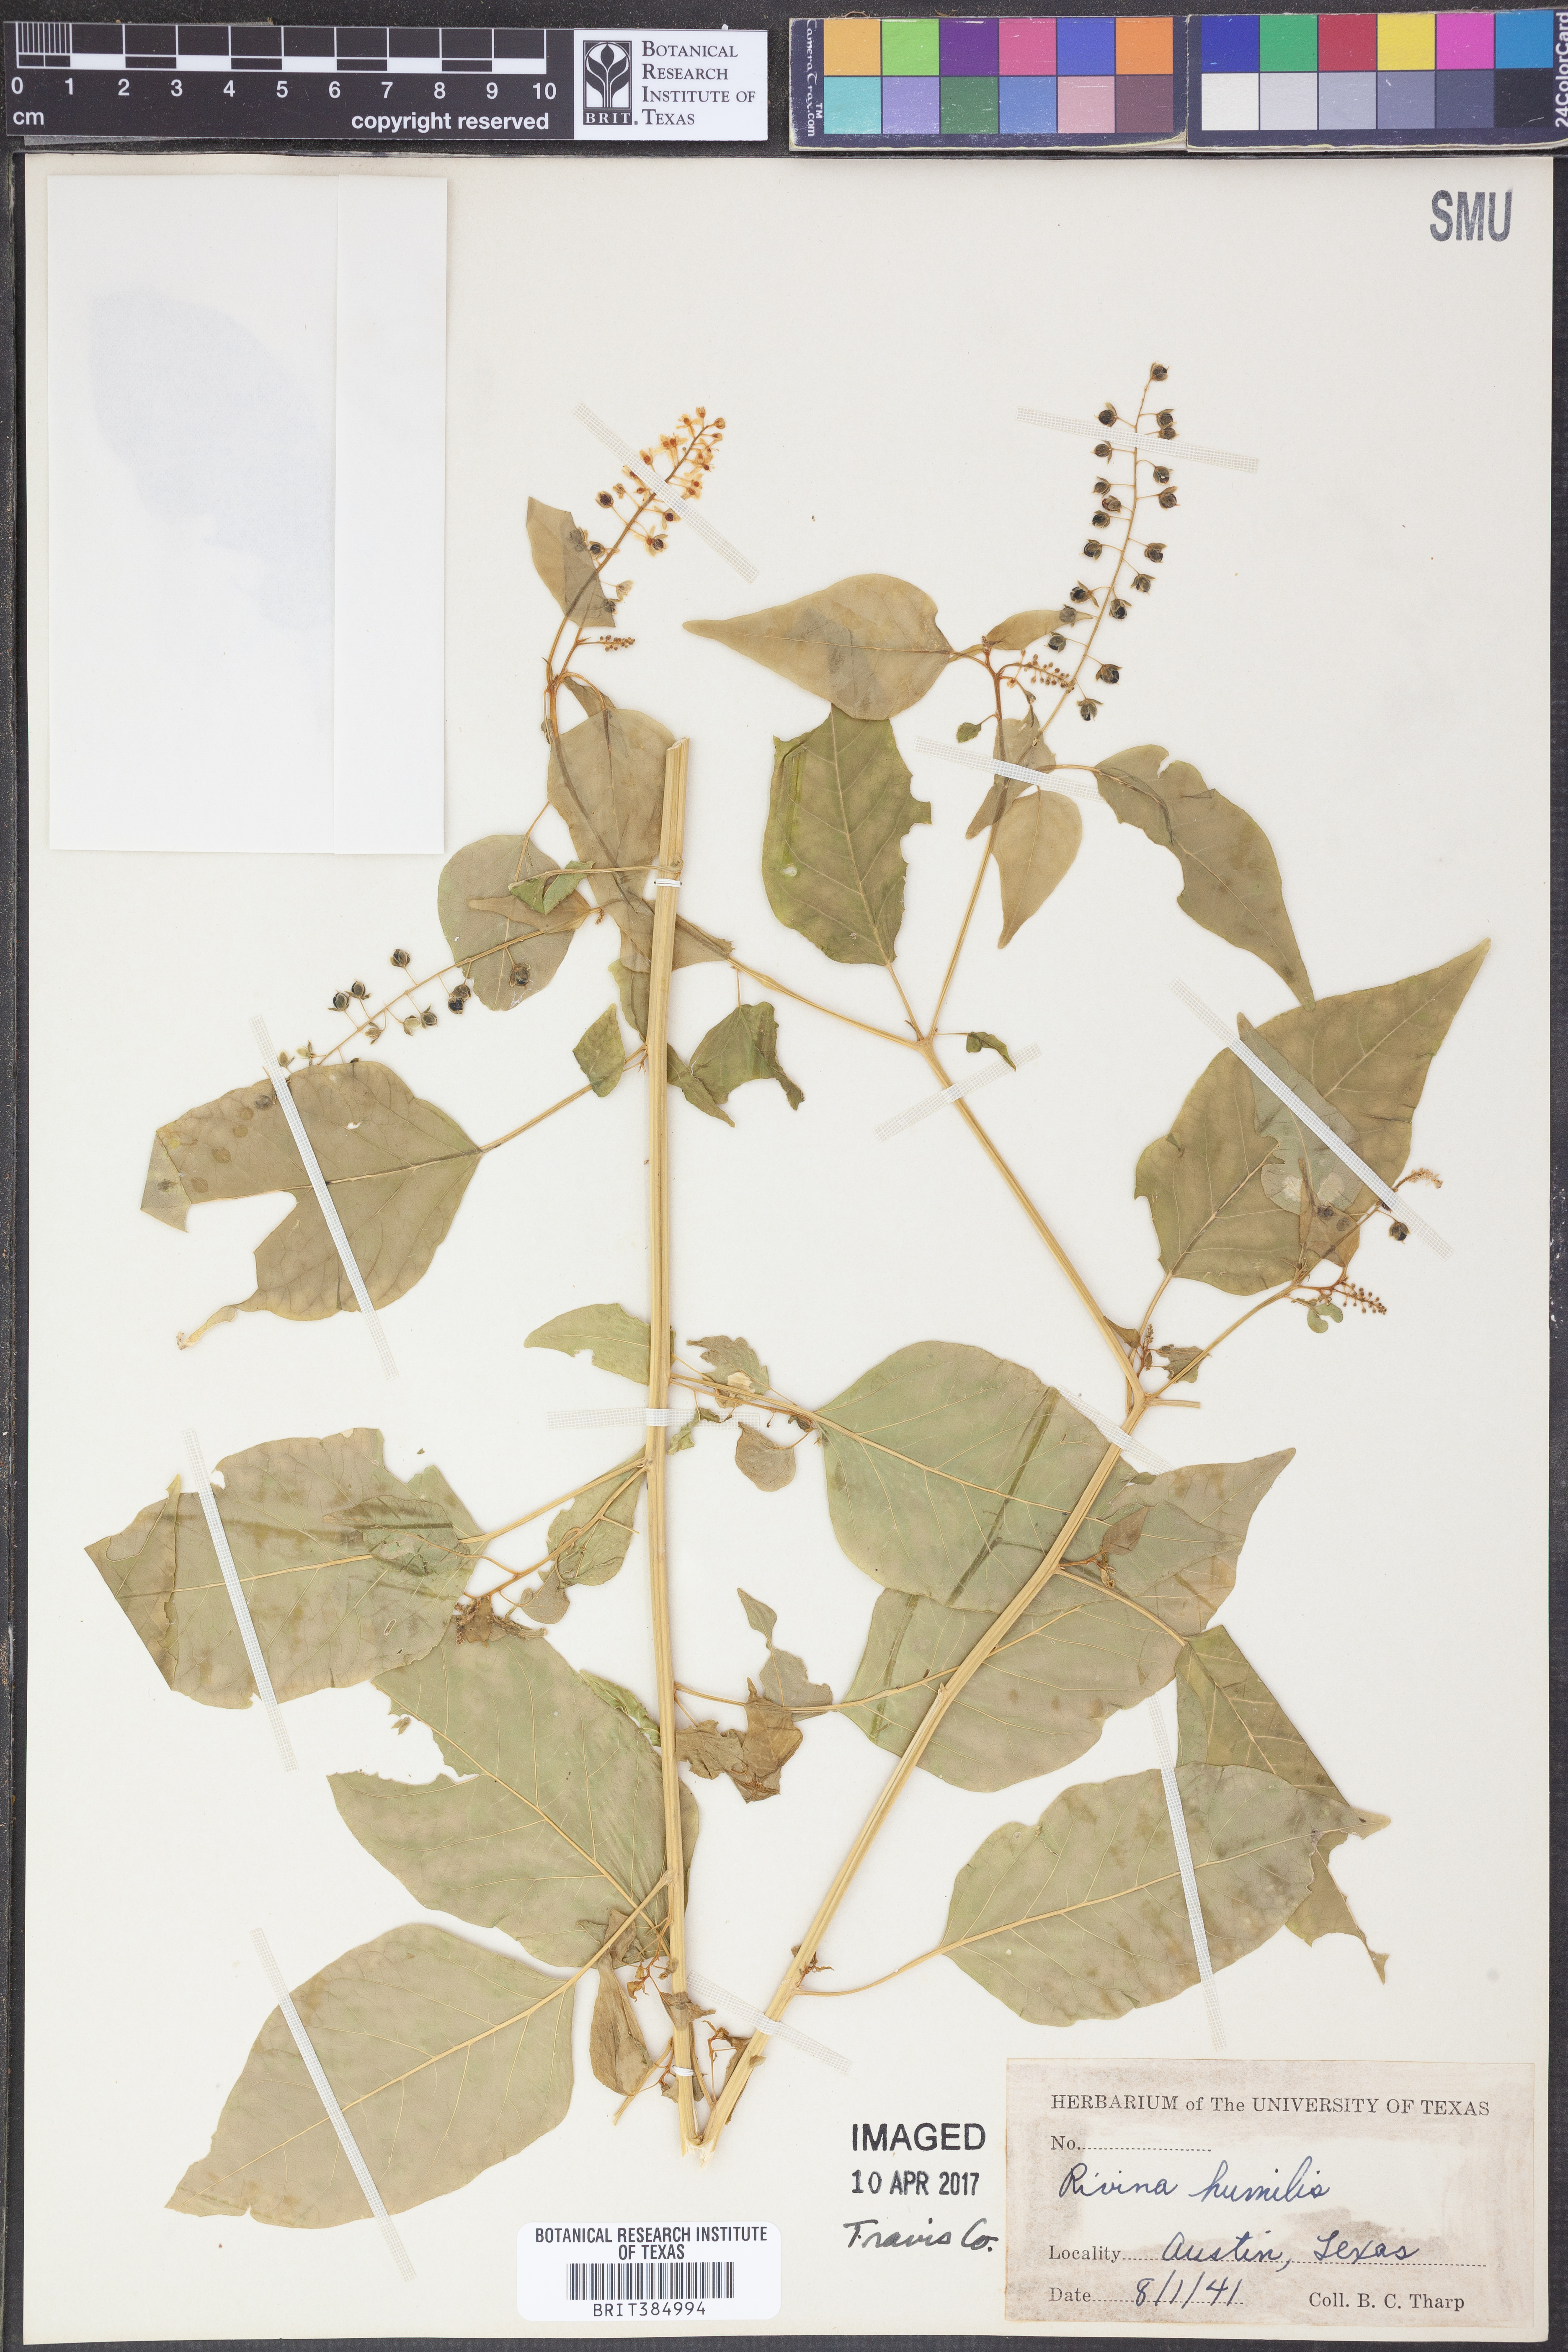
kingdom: Plantae
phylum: Tracheophyta
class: Magnoliopsida
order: Caryophyllales
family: Phytolaccaceae
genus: Rivina
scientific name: Rivina humilis
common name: Rougeplant
